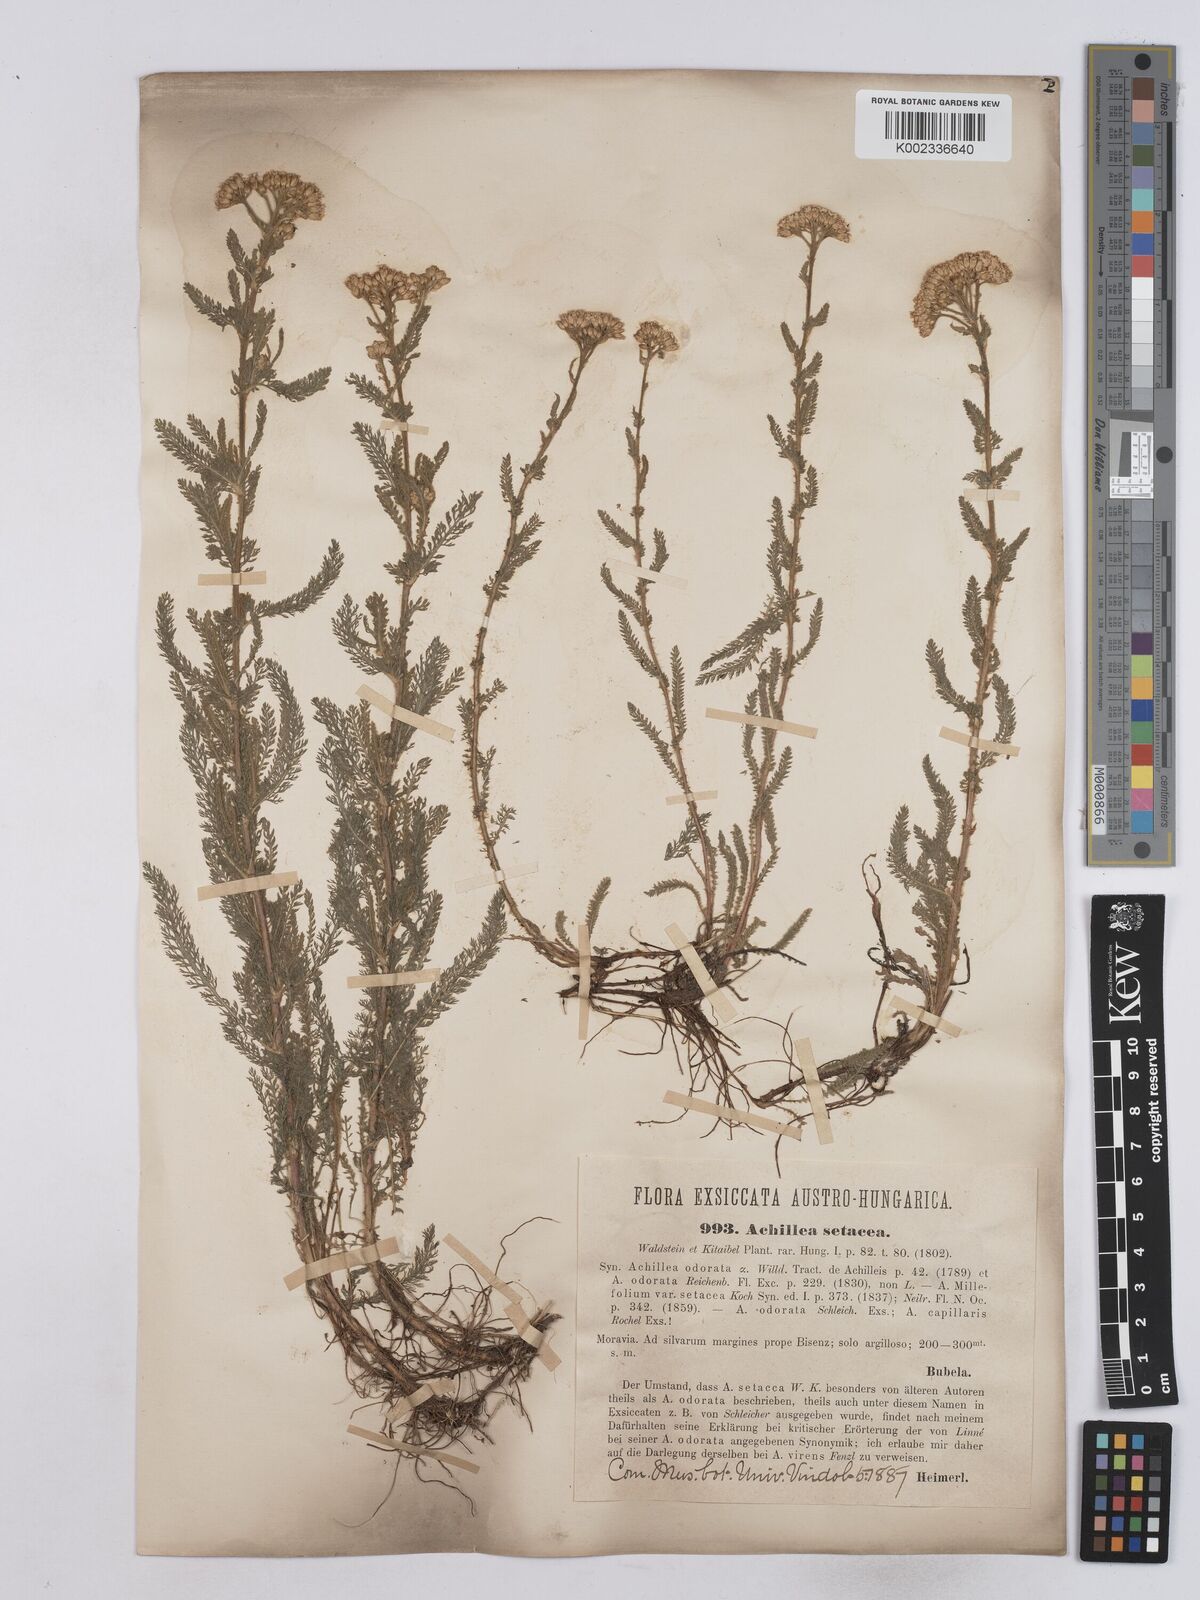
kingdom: Plantae
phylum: Tracheophyta
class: Magnoliopsida
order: Asterales
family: Asteraceae
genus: Achillea
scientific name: Achillea setacea
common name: Bristly yarrow
